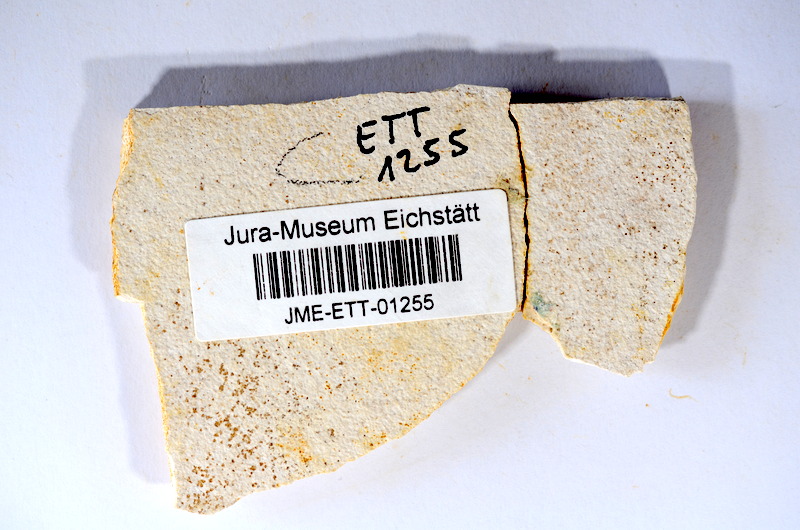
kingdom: Animalia
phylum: Chordata
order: Salmoniformes
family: Orthogonikleithridae
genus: Orthogonikleithrus
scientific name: Orthogonikleithrus hoelli
